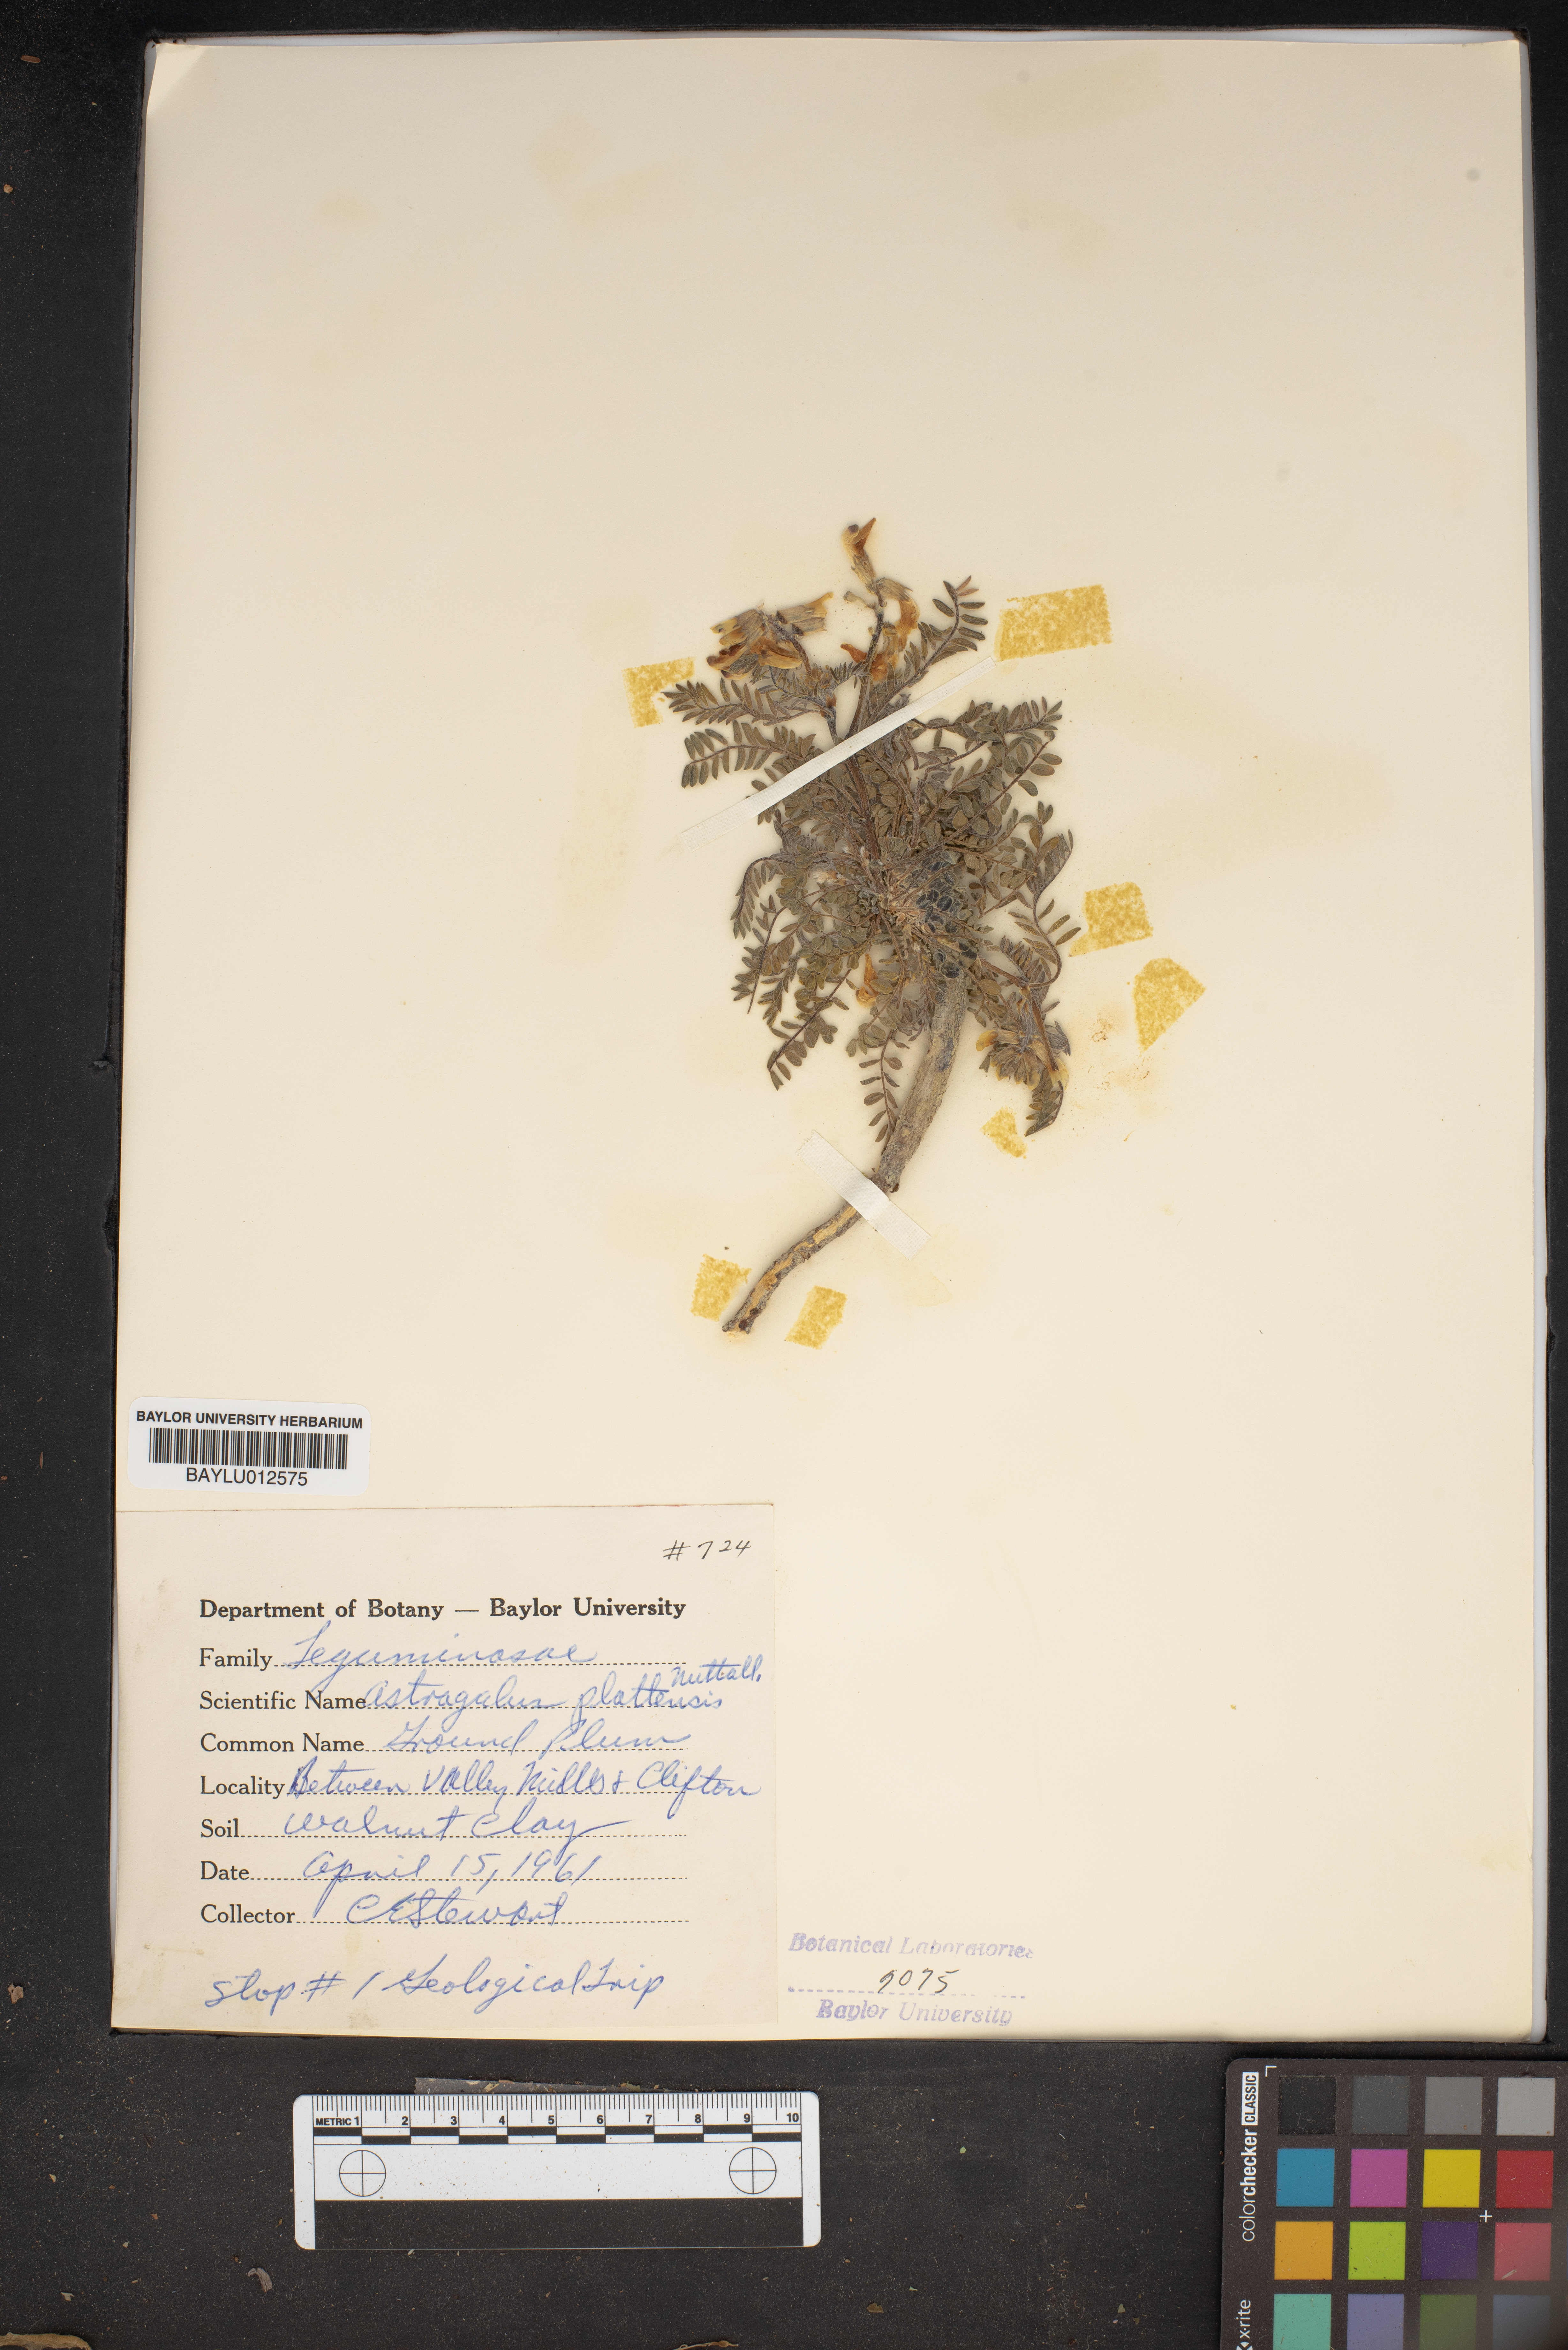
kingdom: Plantae
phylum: Tracheophyta
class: Magnoliopsida
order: Fabales
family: Fabaceae
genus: Astragalus
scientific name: Astragalus plattensis
